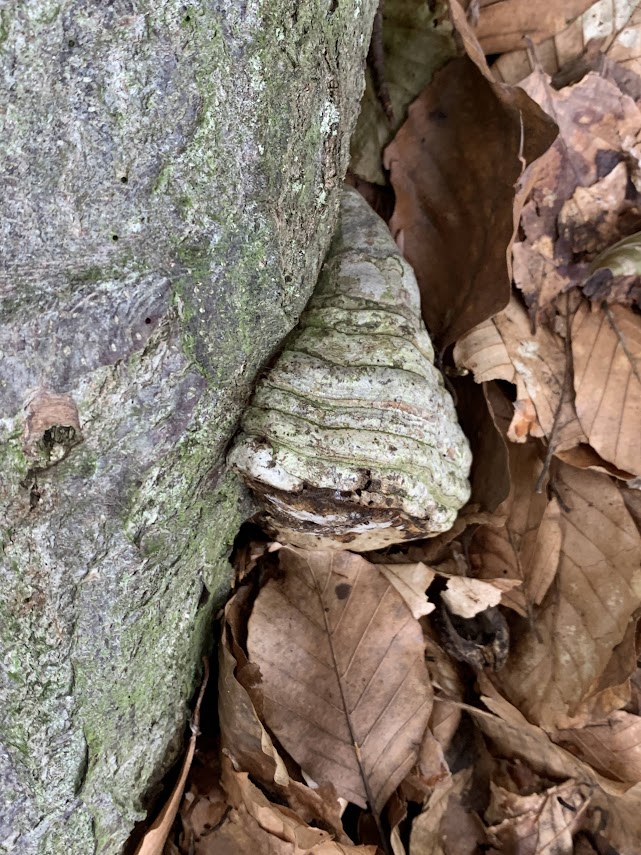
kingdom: Fungi
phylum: Basidiomycota
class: Agaricomycetes
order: Polyporales
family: Polyporaceae
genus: Fomes
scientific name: Fomes fomentarius
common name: tøndersvamp
